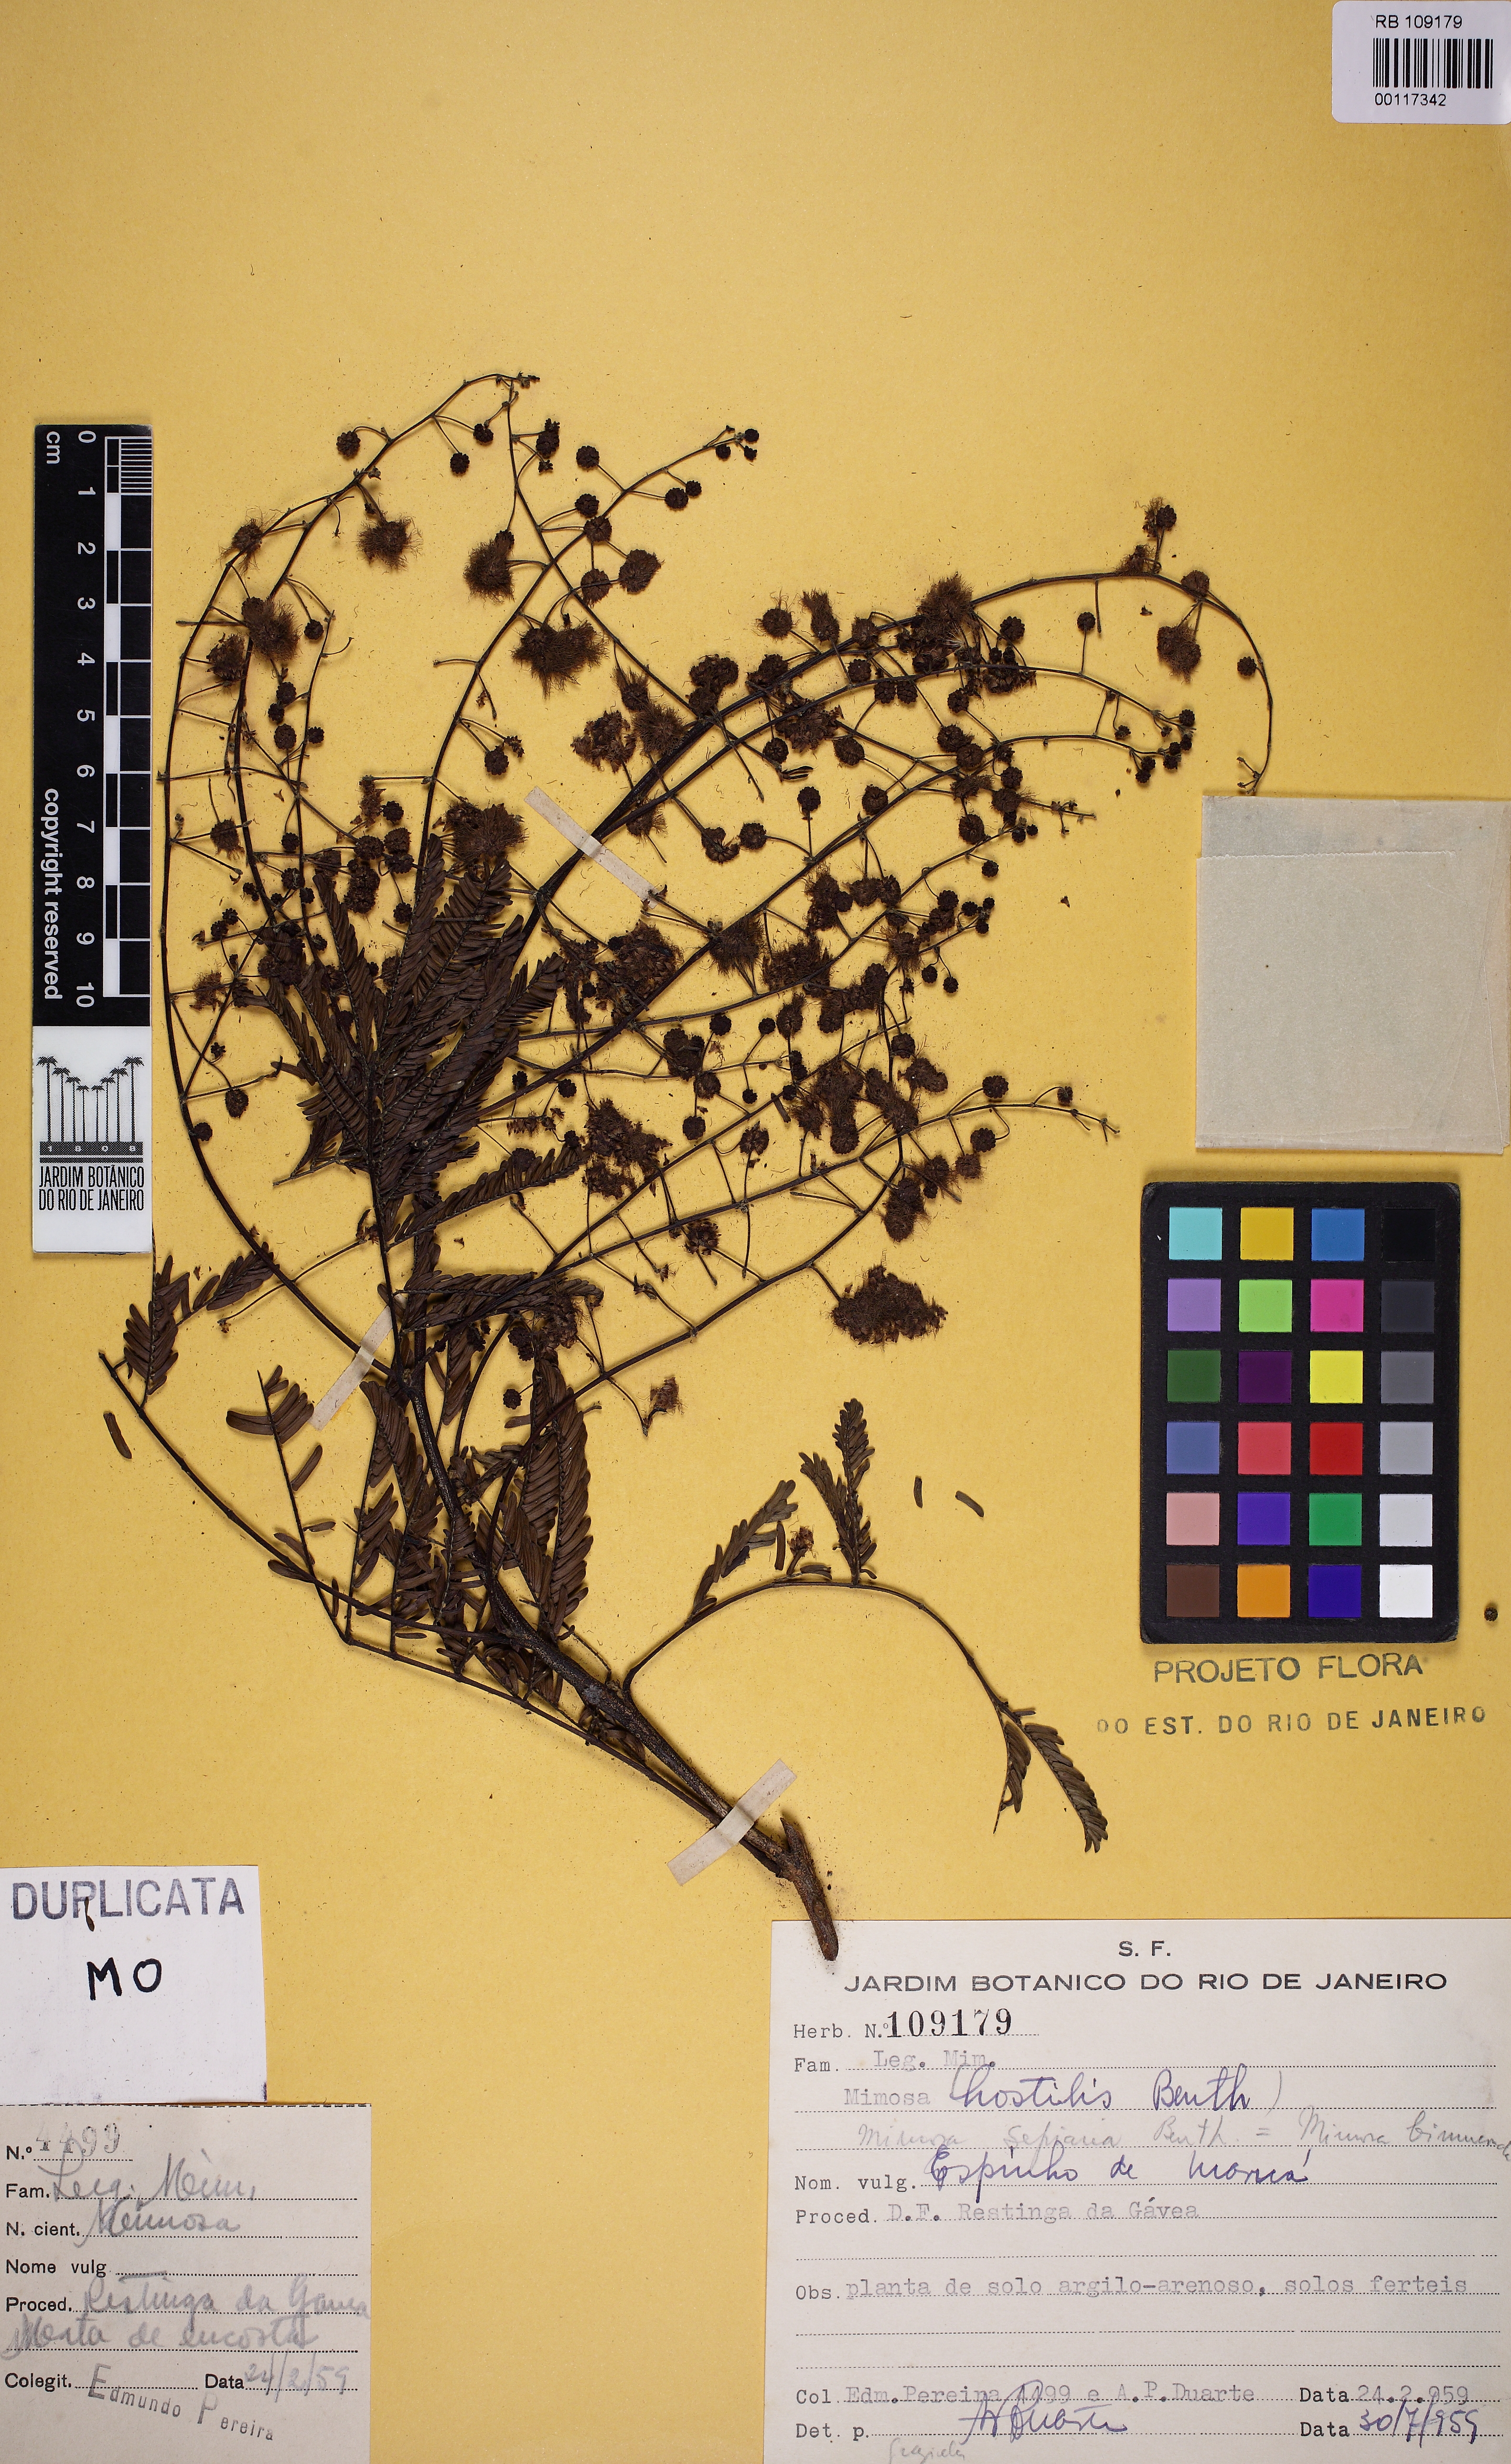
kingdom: Plantae
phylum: Tracheophyta
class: Magnoliopsida
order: Fabales
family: Fabaceae
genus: Mimosa
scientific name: Mimosa bimucronata
